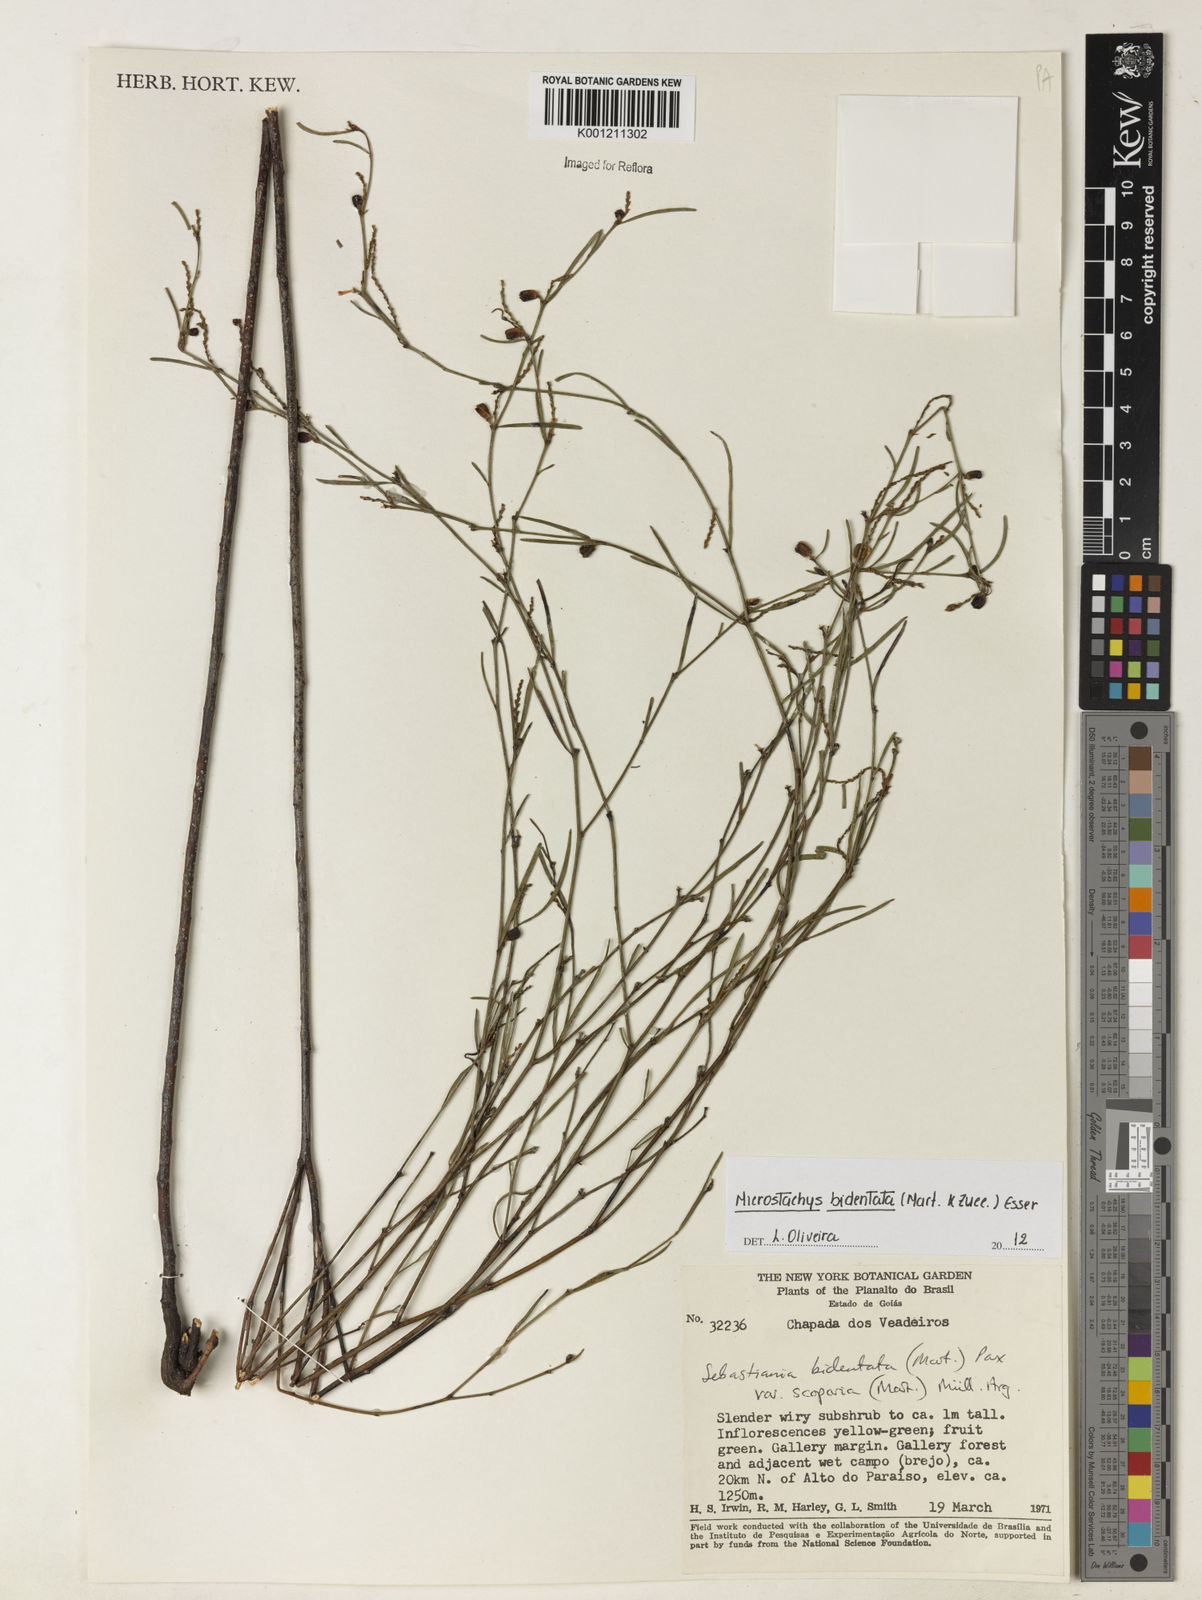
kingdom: Plantae
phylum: Tracheophyta
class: Magnoliopsida
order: Malpighiales
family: Euphorbiaceae
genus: Microstachys
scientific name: Microstachys bidentata
